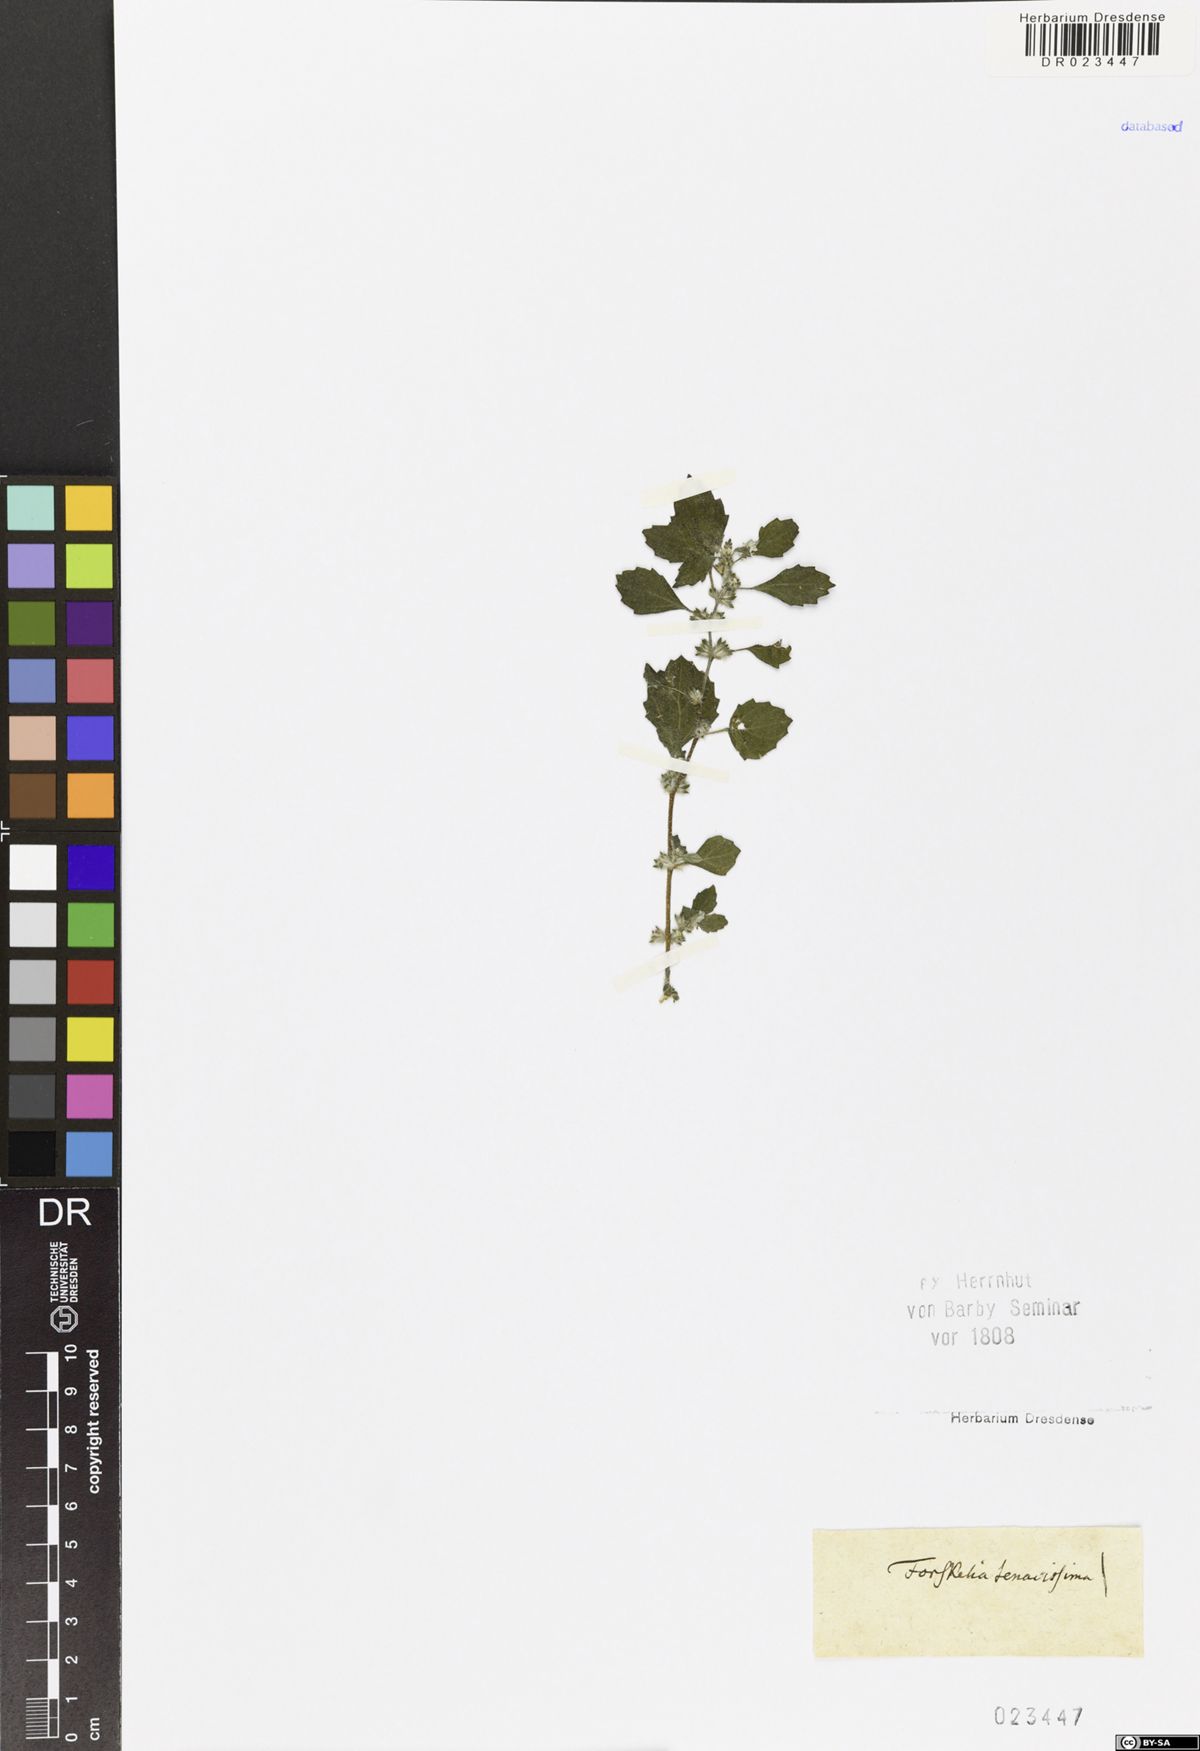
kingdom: Plantae
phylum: Tracheophyta
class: Magnoliopsida
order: Rosales
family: Urticaceae
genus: Forsskaolea
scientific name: Forsskaolea tenacissima
